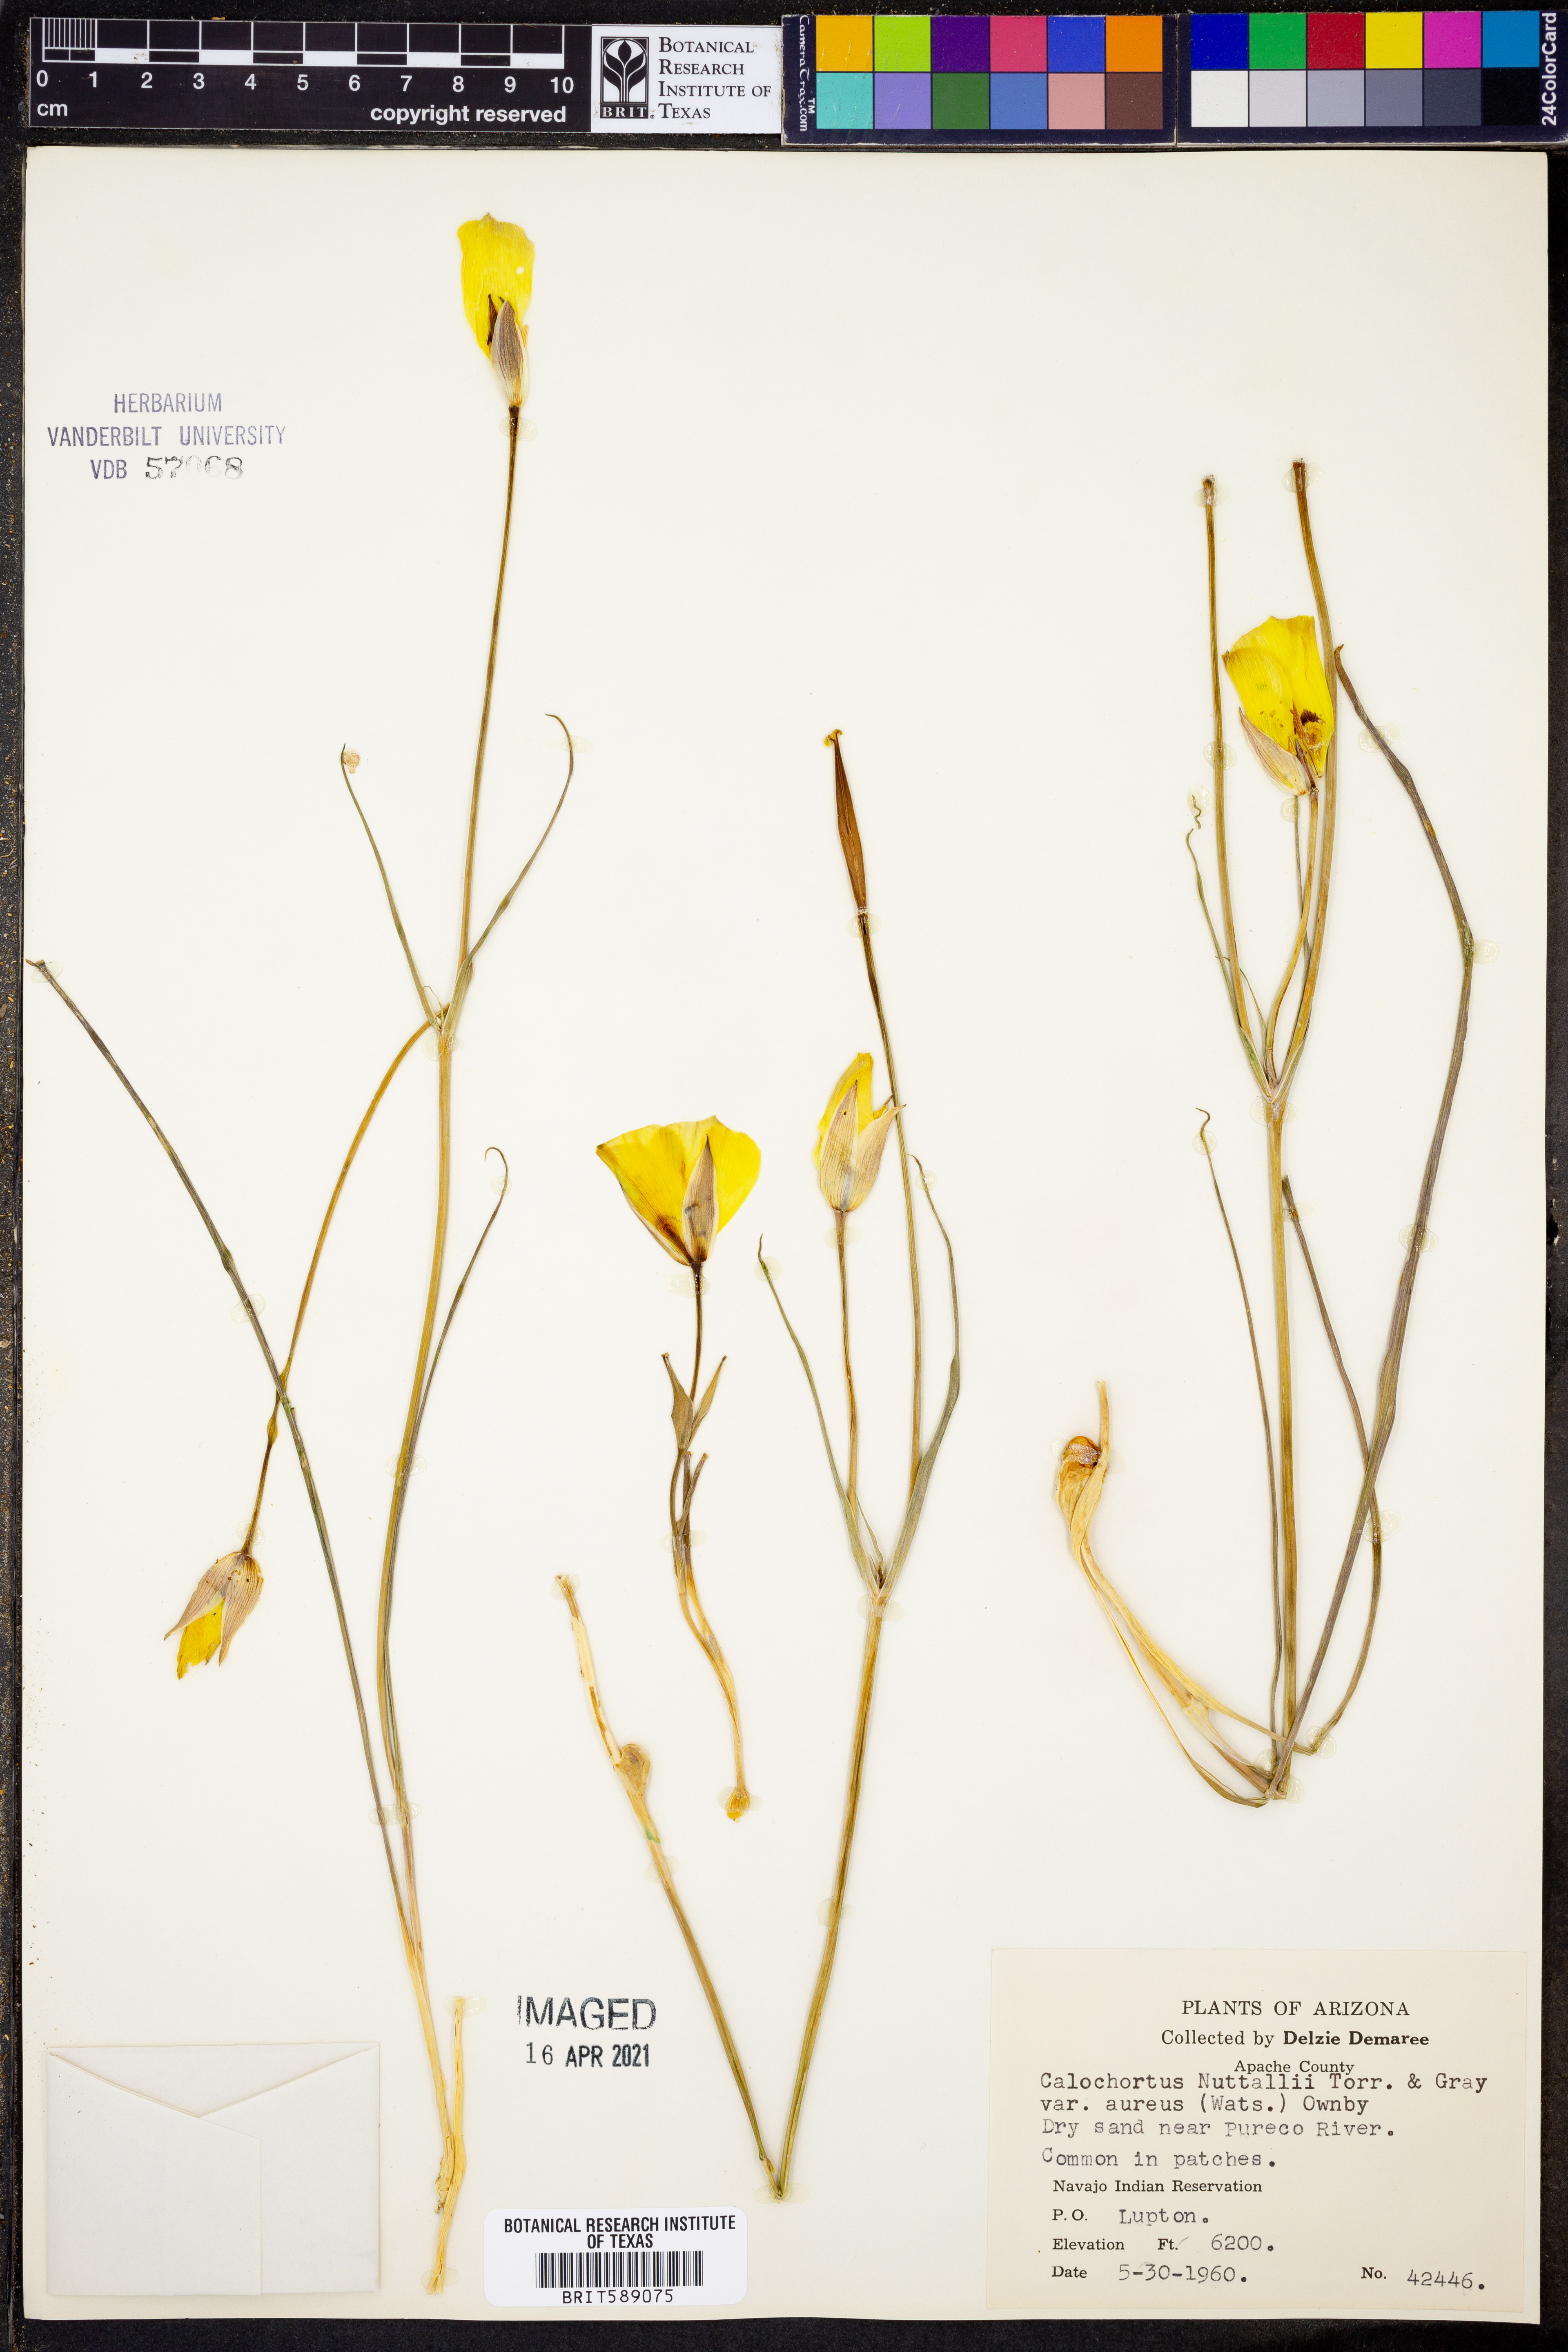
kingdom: Plantae
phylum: Tracheophyta
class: Liliopsida
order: Liliales
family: Liliaceae
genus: Calochortus
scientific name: Calochortus aureus
